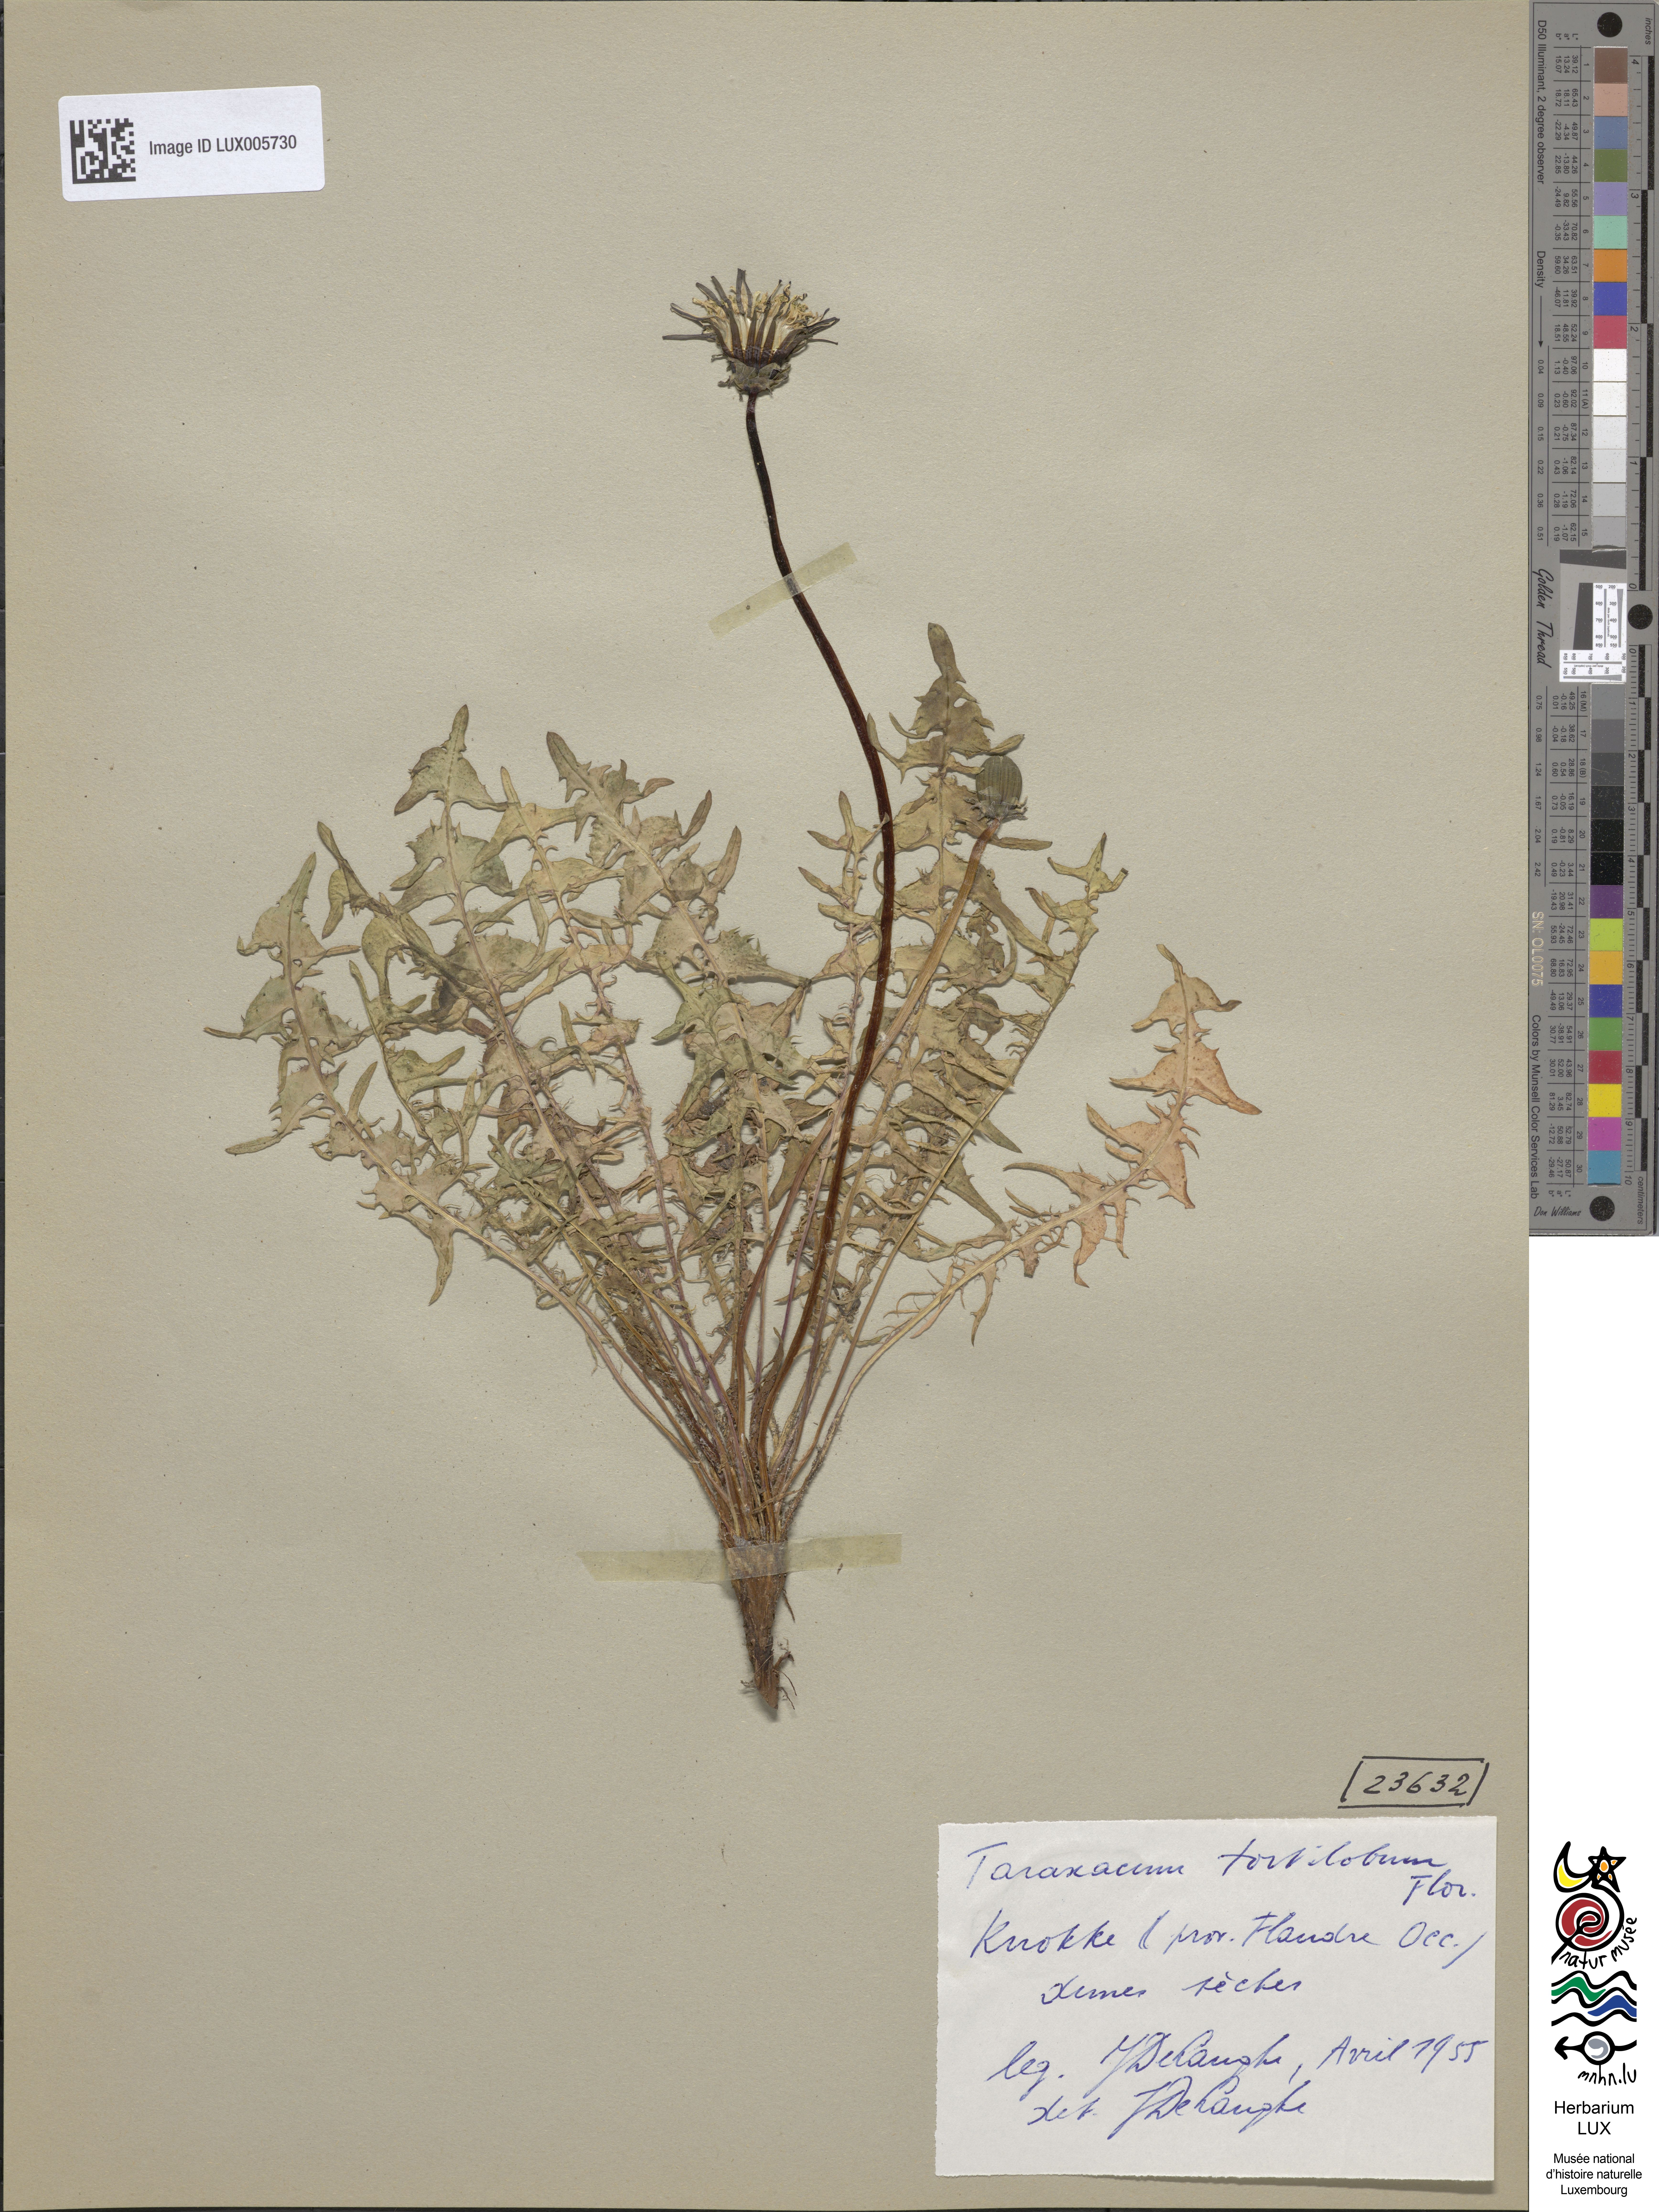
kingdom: Plantae
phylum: Tracheophyta
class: Magnoliopsida
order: Asterales
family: Asteraceae
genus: Taraxacum
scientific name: Taraxacum tortilobum
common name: Twisted-lobed dandelion
